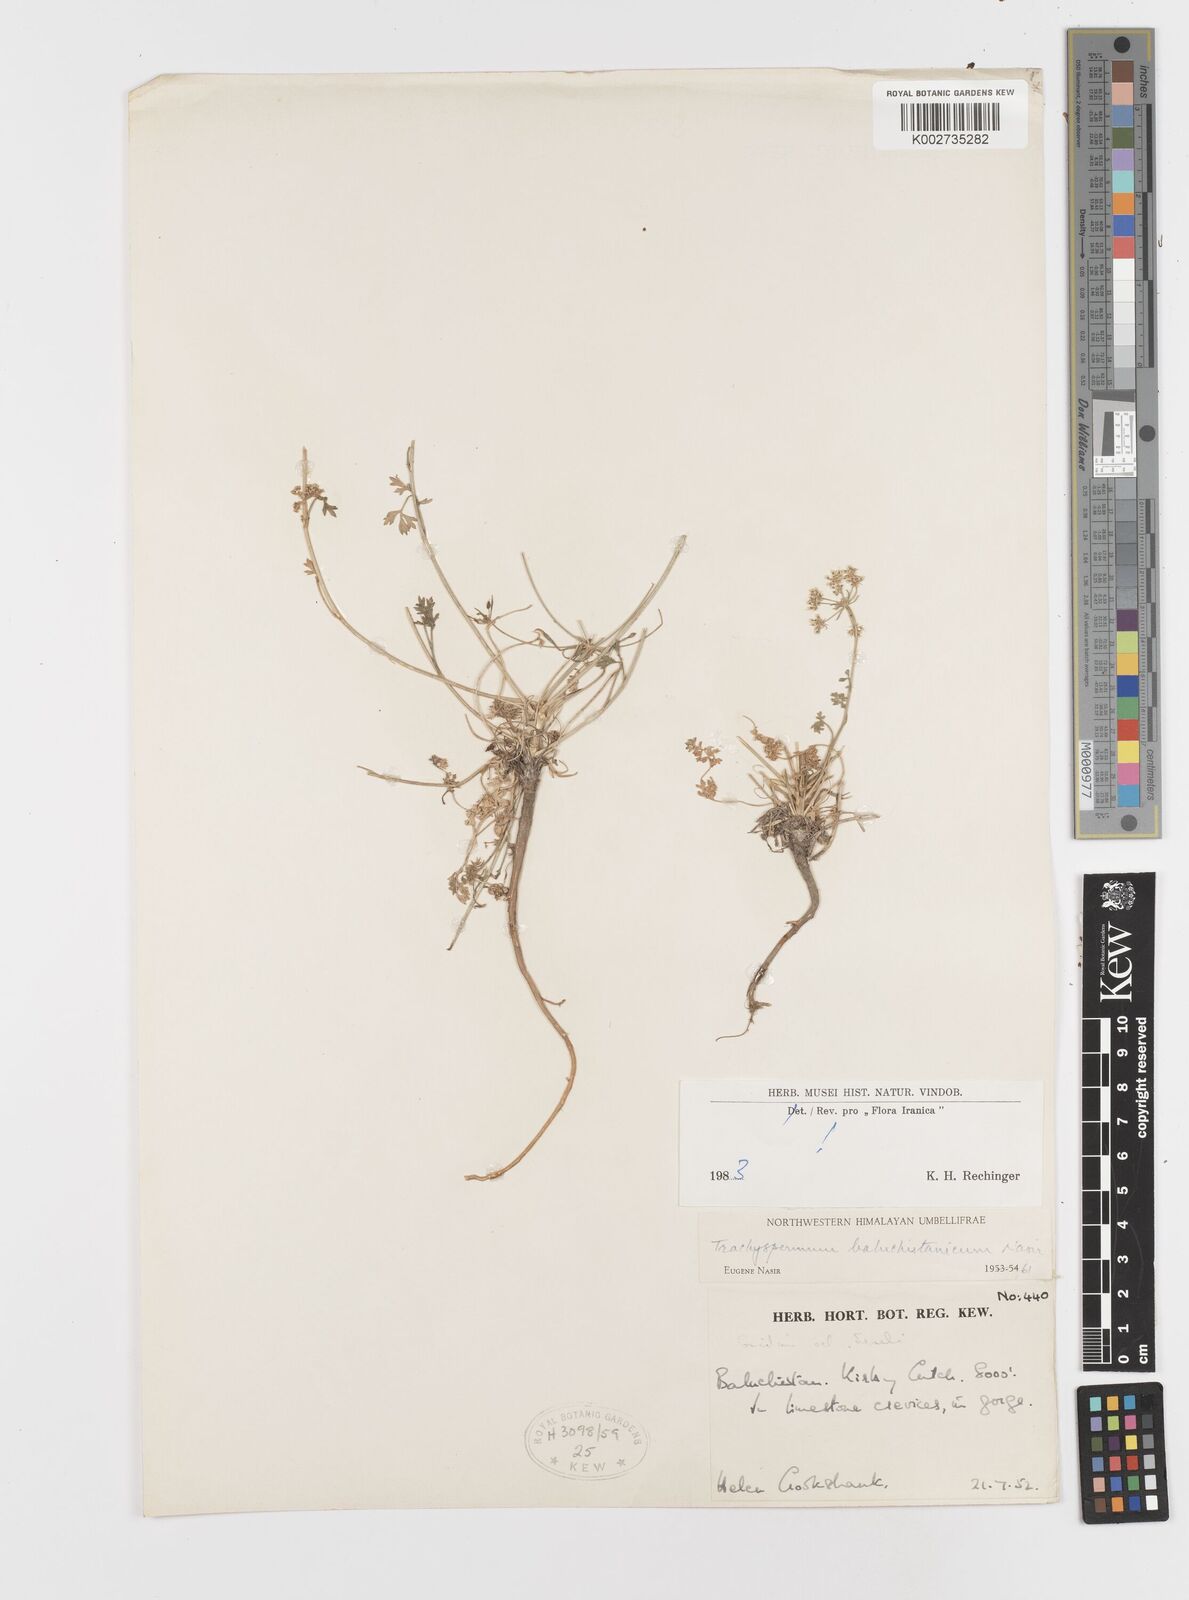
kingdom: Plantae
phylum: Tracheophyta
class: Magnoliopsida
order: Apiales
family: Apiaceae
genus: Trachyspermum
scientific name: Trachyspermum baluchistanicum
